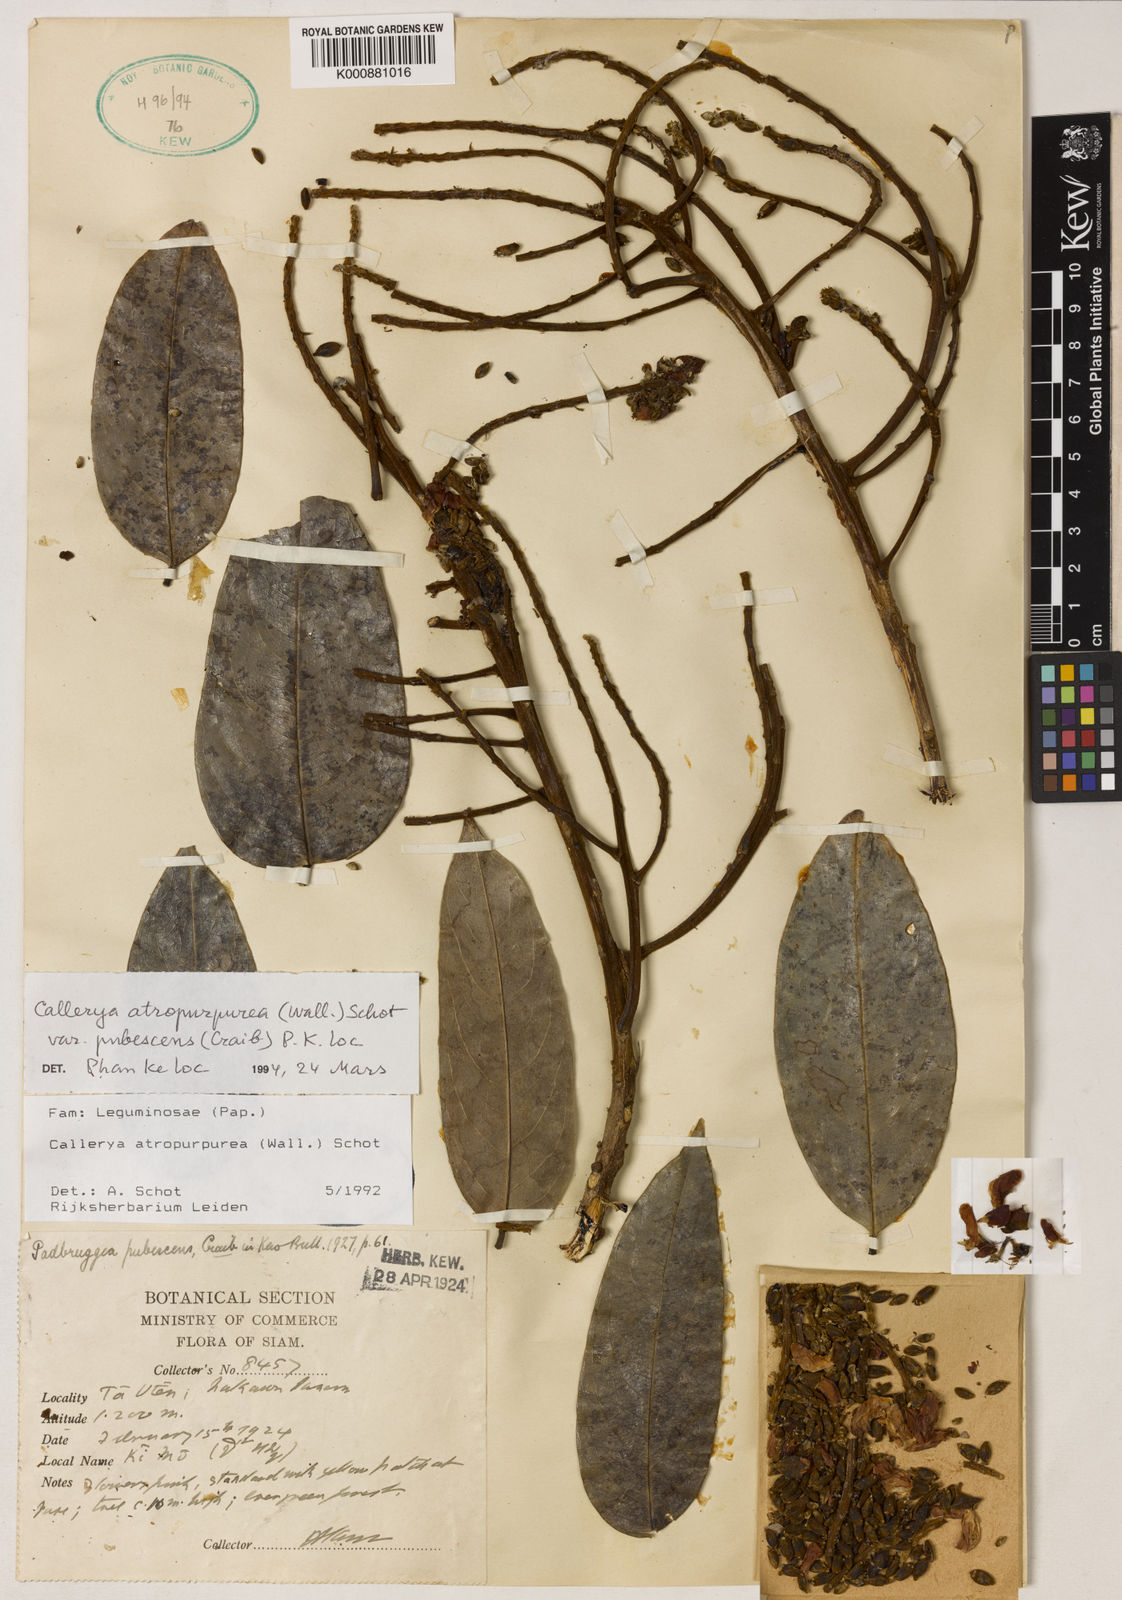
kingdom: Plantae
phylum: Tracheophyta
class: Magnoliopsida
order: Fabales
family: Fabaceae
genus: Adinobotrys
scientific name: Adinobotrys atropurpureus
